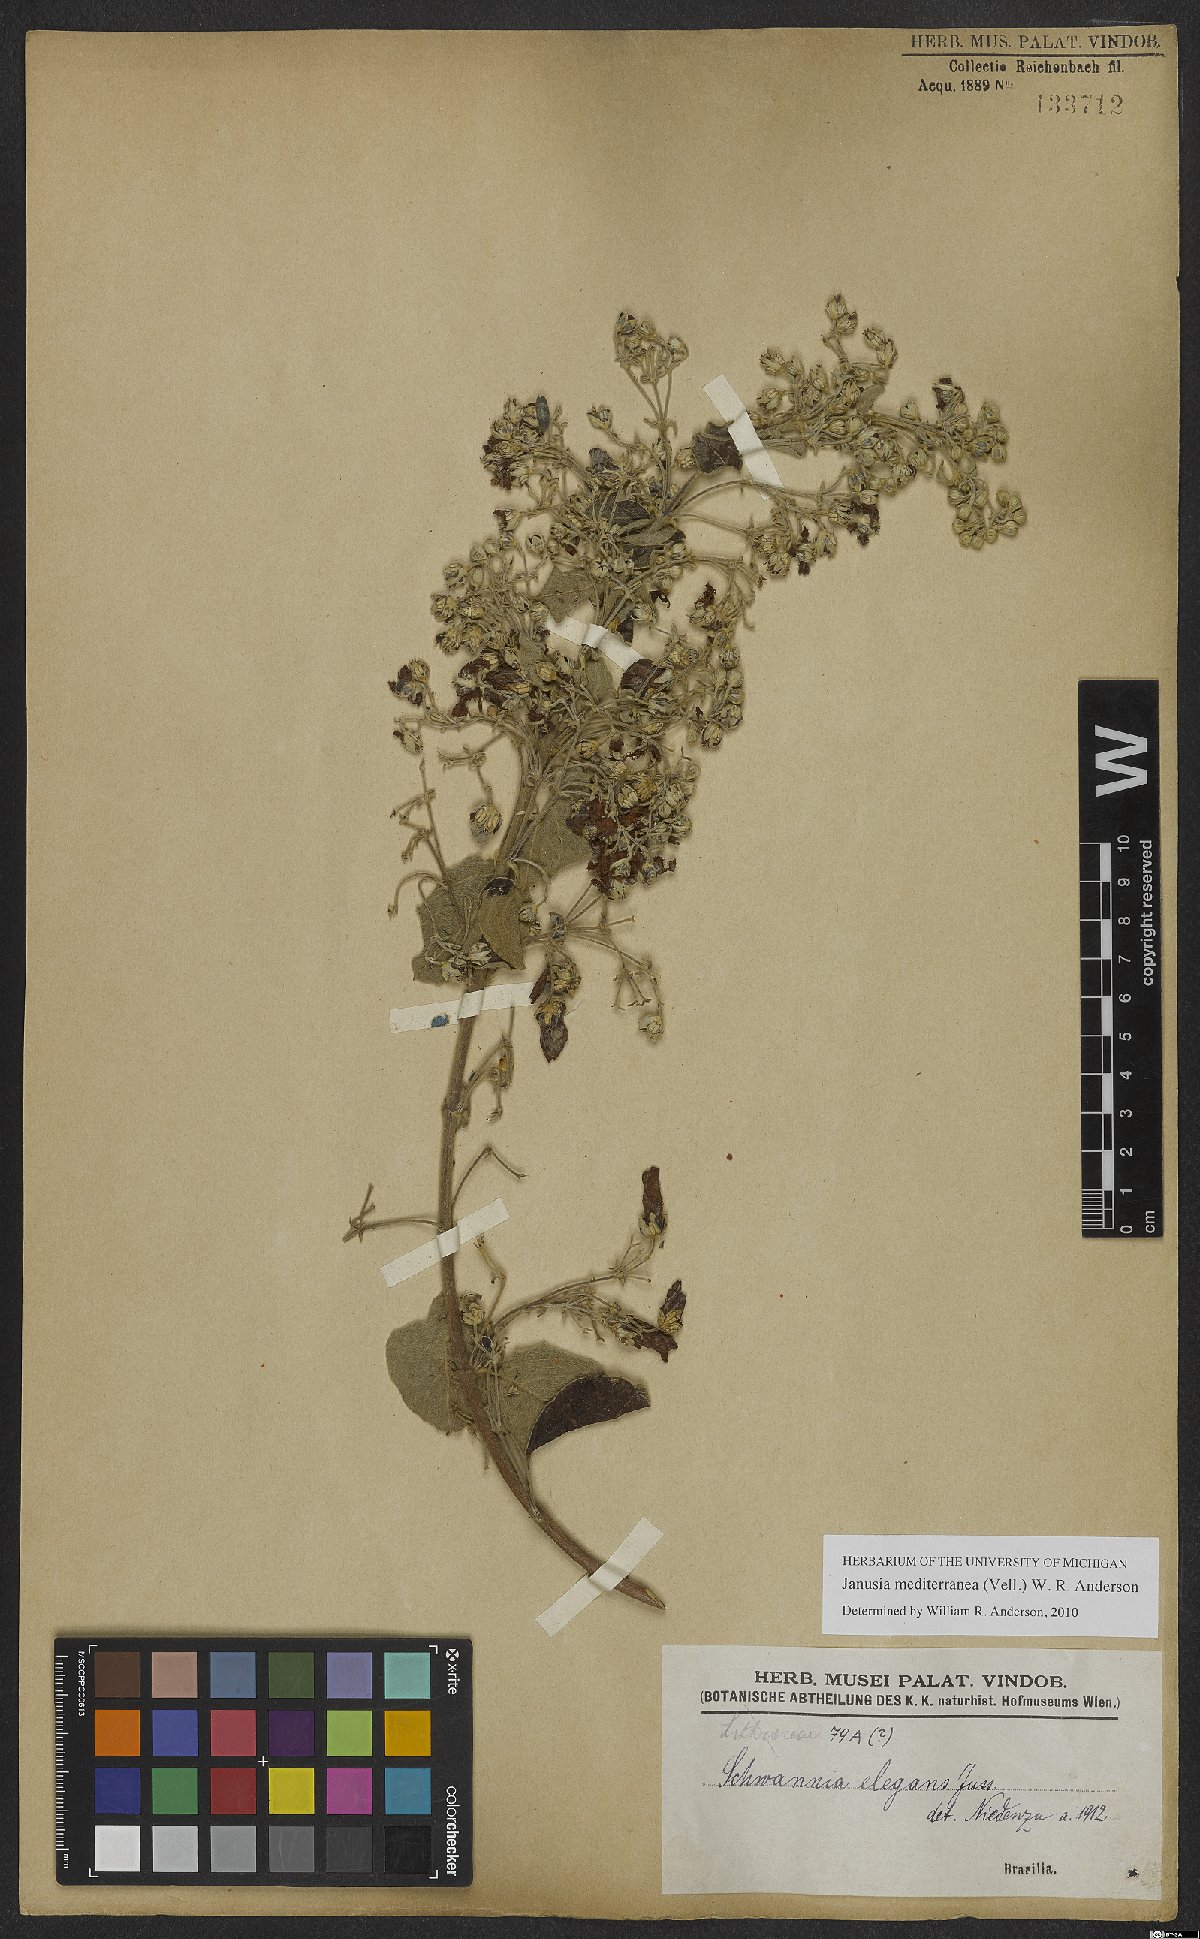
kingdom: Plantae
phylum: Tracheophyta
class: Magnoliopsida
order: Malpighiales
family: Malpighiaceae
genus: Janusia
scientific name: Janusia mediterranea
